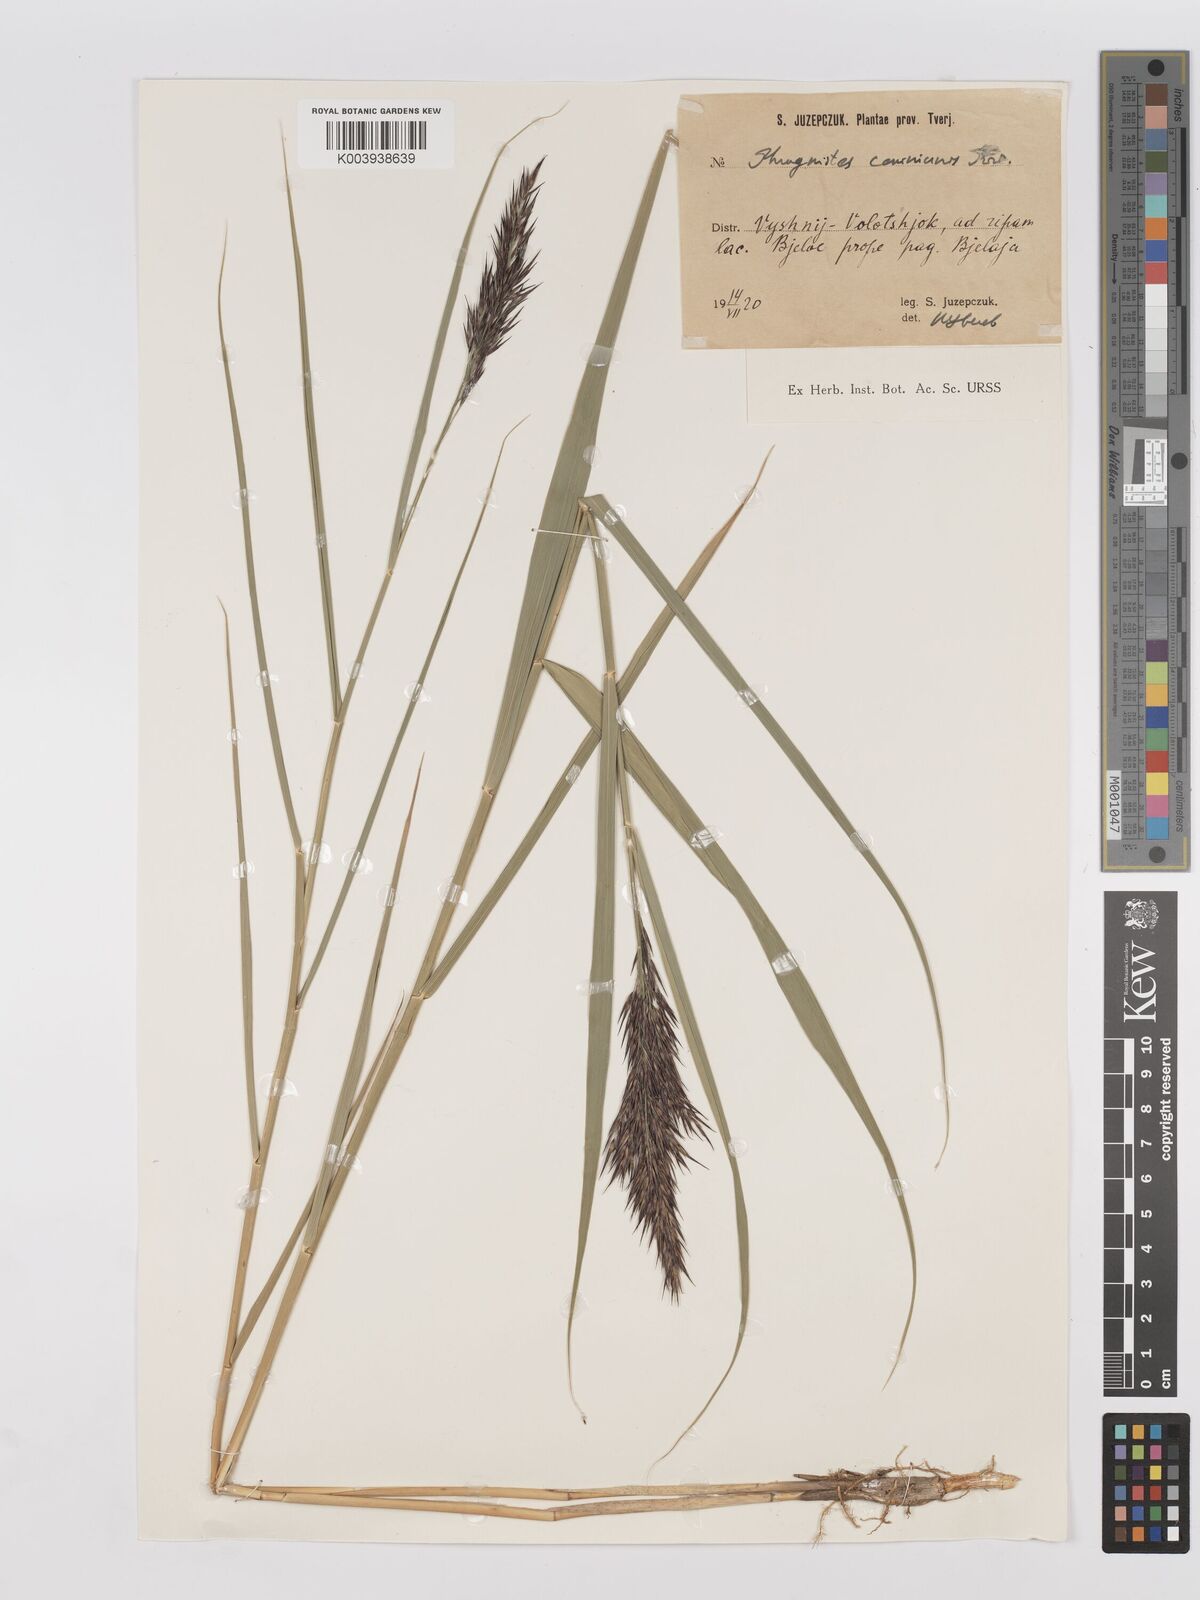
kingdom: Plantae
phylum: Tracheophyta
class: Liliopsida
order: Poales
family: Poaceae
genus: Phragmites
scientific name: Phragmites australis
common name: Common reed
